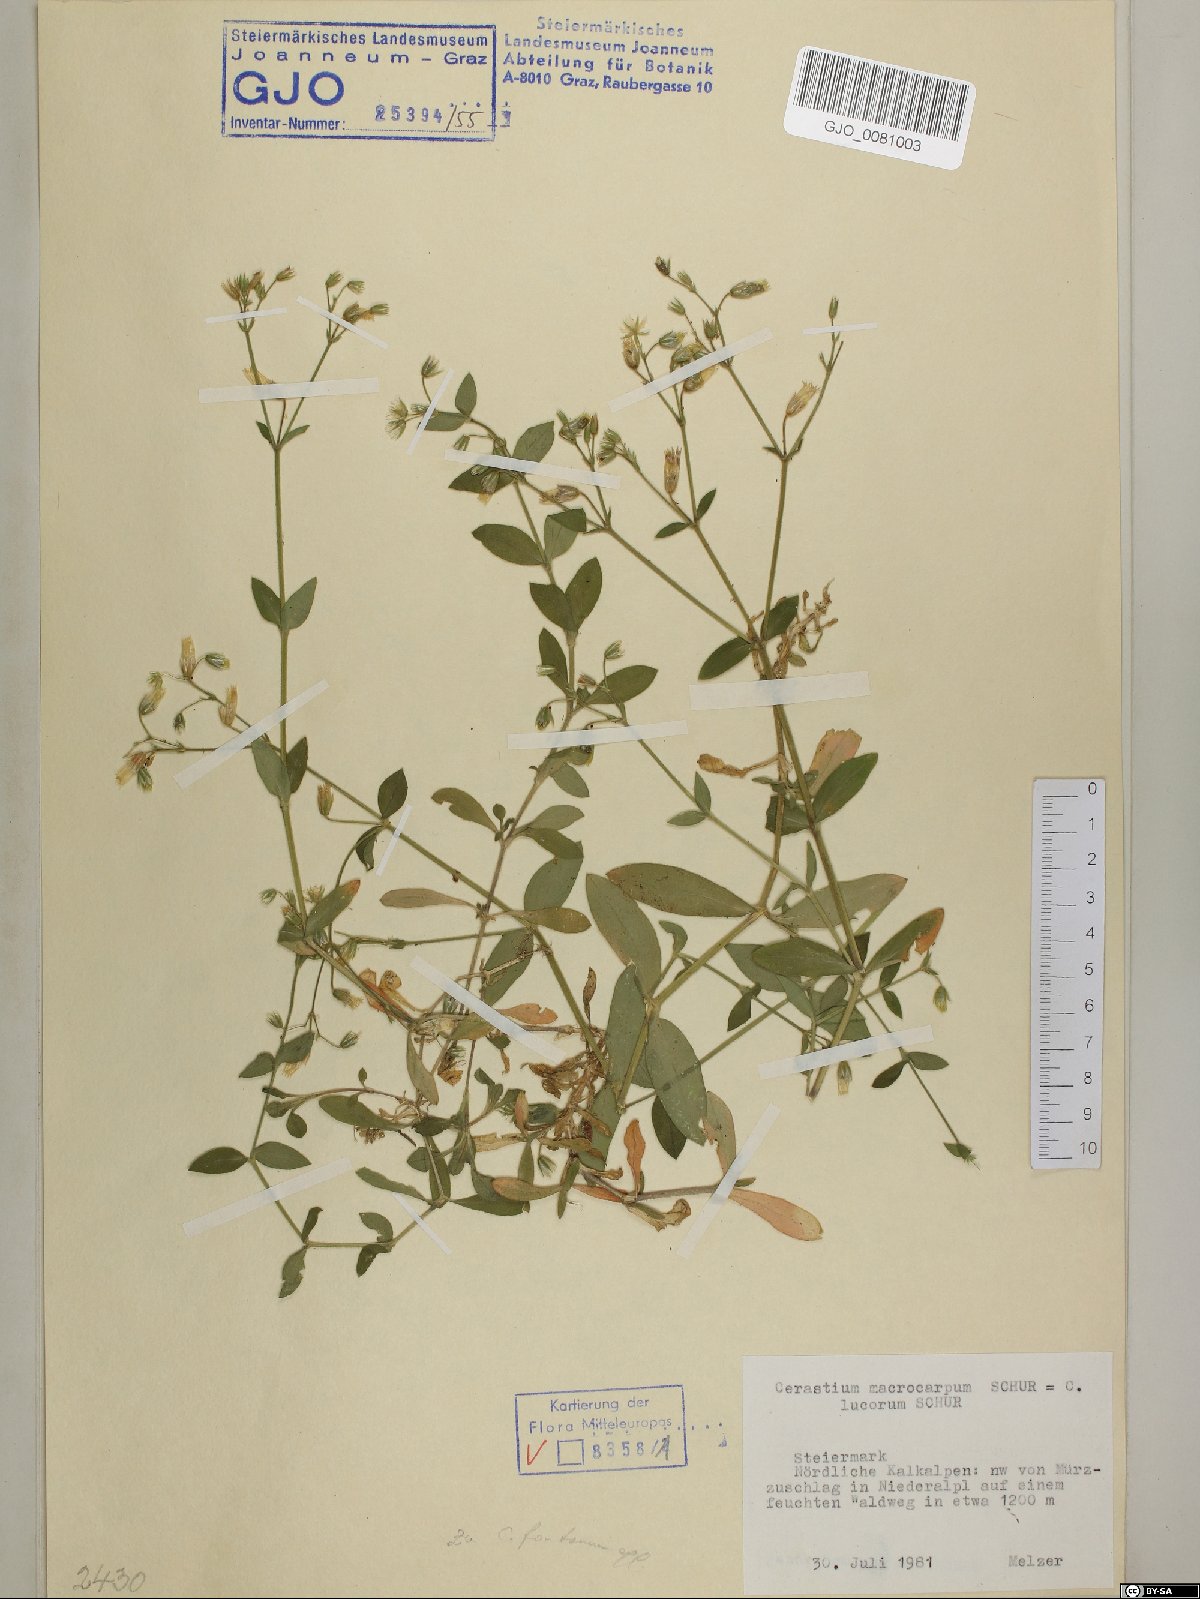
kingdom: Plantae
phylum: Tracheophyta
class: Magnoliopsida
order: Caryophyllales
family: Caryophyllaceae
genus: Cerastium
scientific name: Cerastium lucorum
